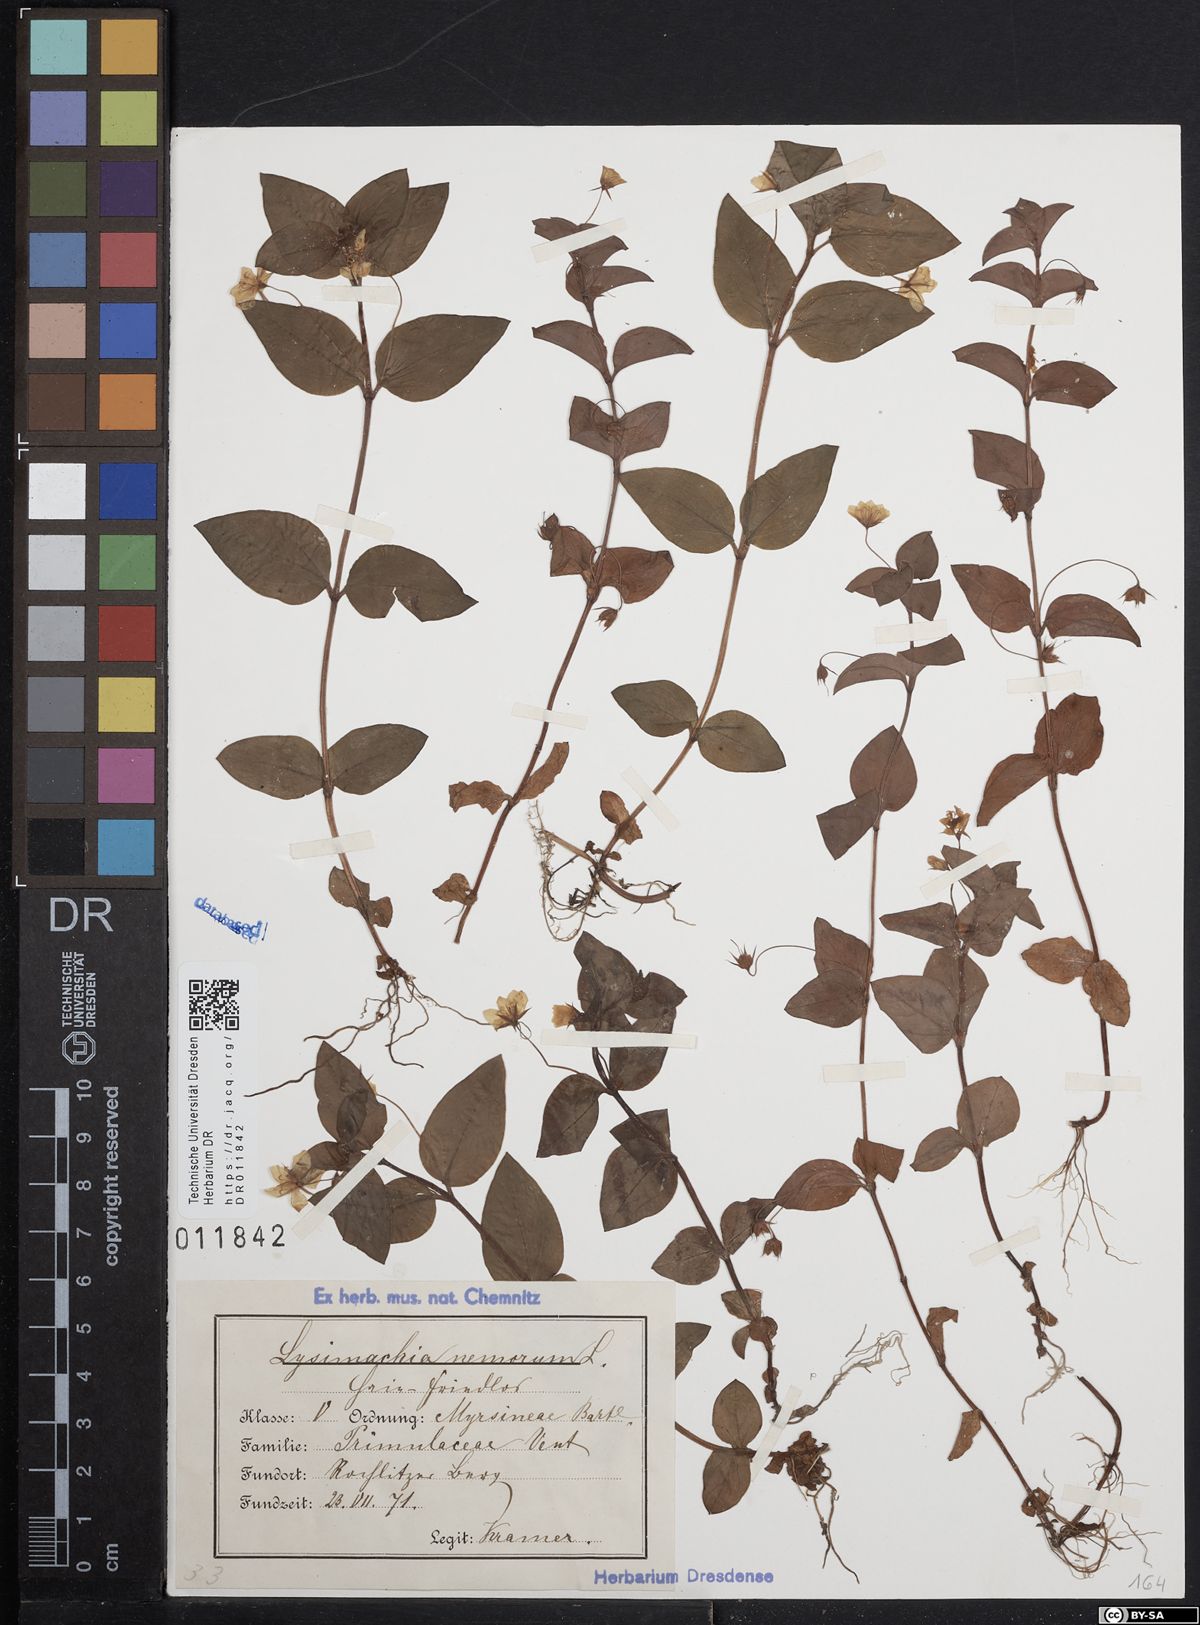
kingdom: Plantae
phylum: Tracheophyta
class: Magnoliopsida
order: Ericales
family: Primulaceae
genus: Lysimachia
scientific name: Lysimachia nemorum
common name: Yellow pimpernel
